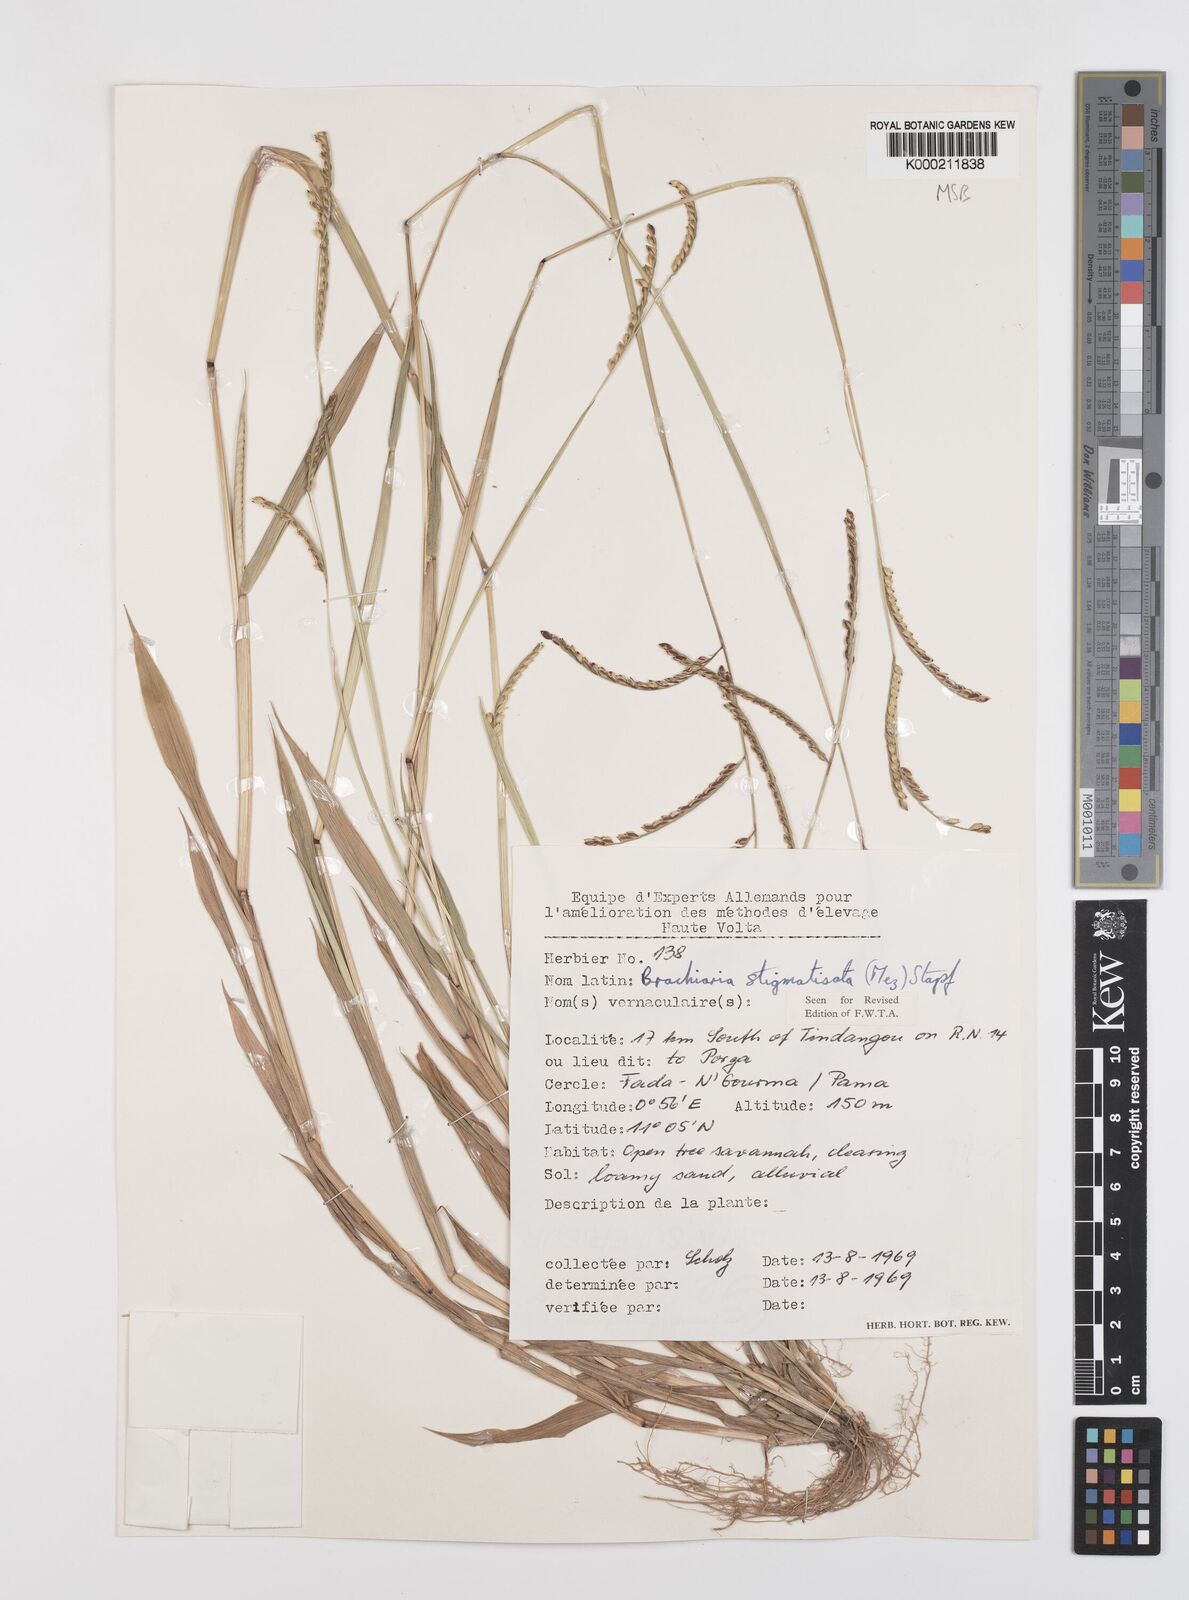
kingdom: Plantae
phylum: Tracheophyta
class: Liliopsida
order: Poales
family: Poaceae
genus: Urochloa
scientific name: Urochloa stigmatisata
